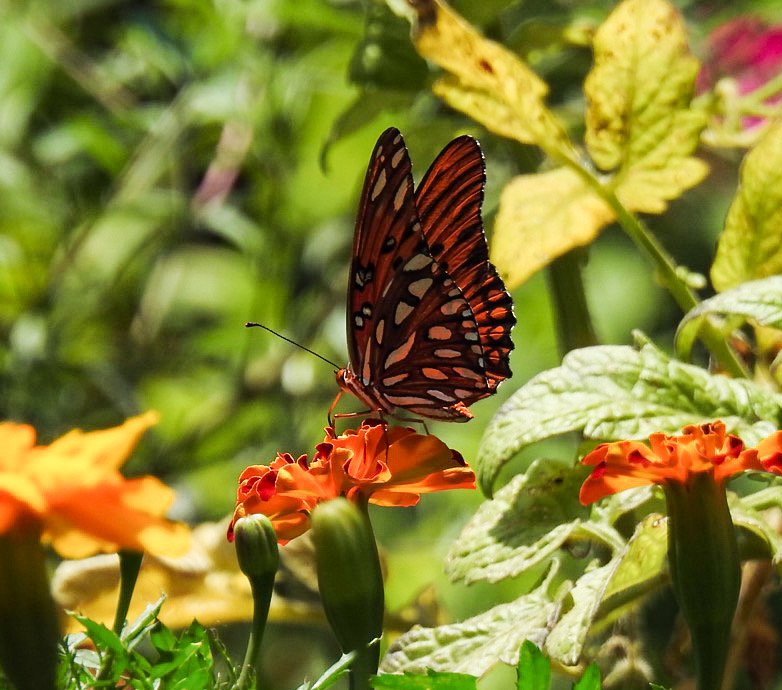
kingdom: Animalia
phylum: Arthropoda
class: Insecta
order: Lepidoptera
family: Nymphalidae
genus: Dione
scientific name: Dione vanillae
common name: Gulf Fritillary
